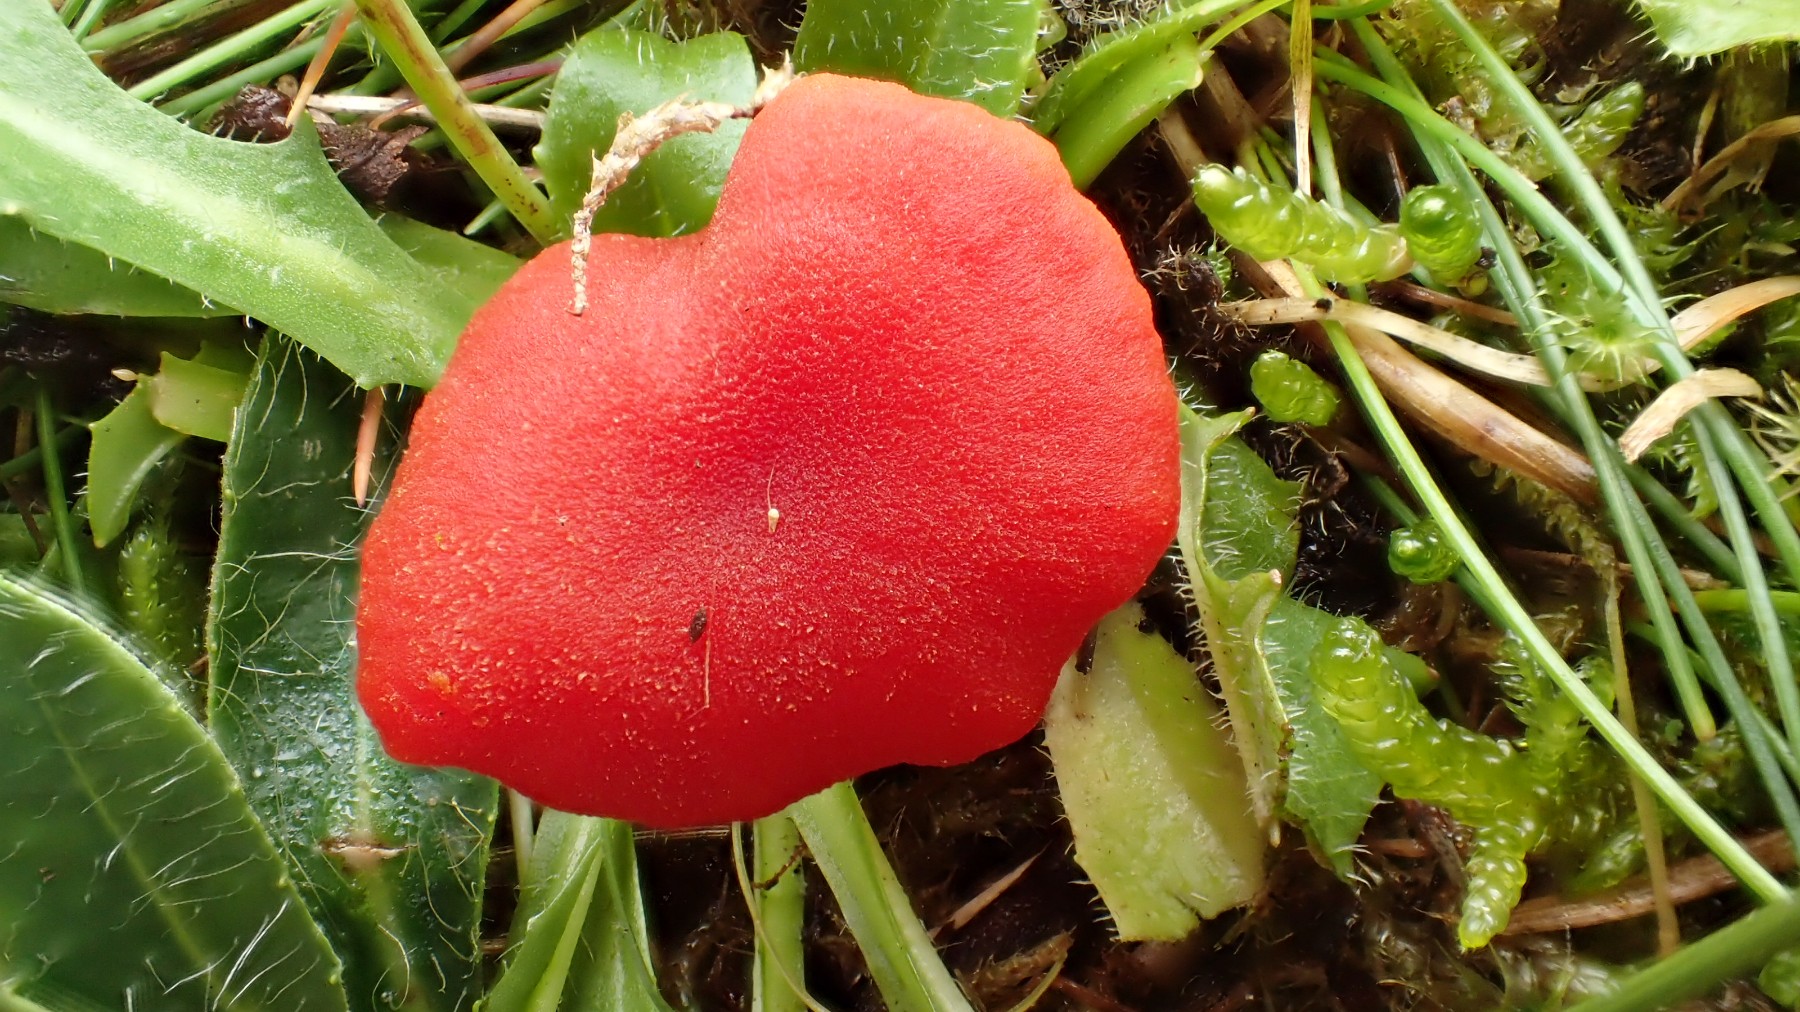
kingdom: Fungi
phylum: Basidiomycota
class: Agaricomycetes
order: Agaricales
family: Hygrophoraceae
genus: Hygrocybe
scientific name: Hygrocybe miniata
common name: mønje-vokshat
